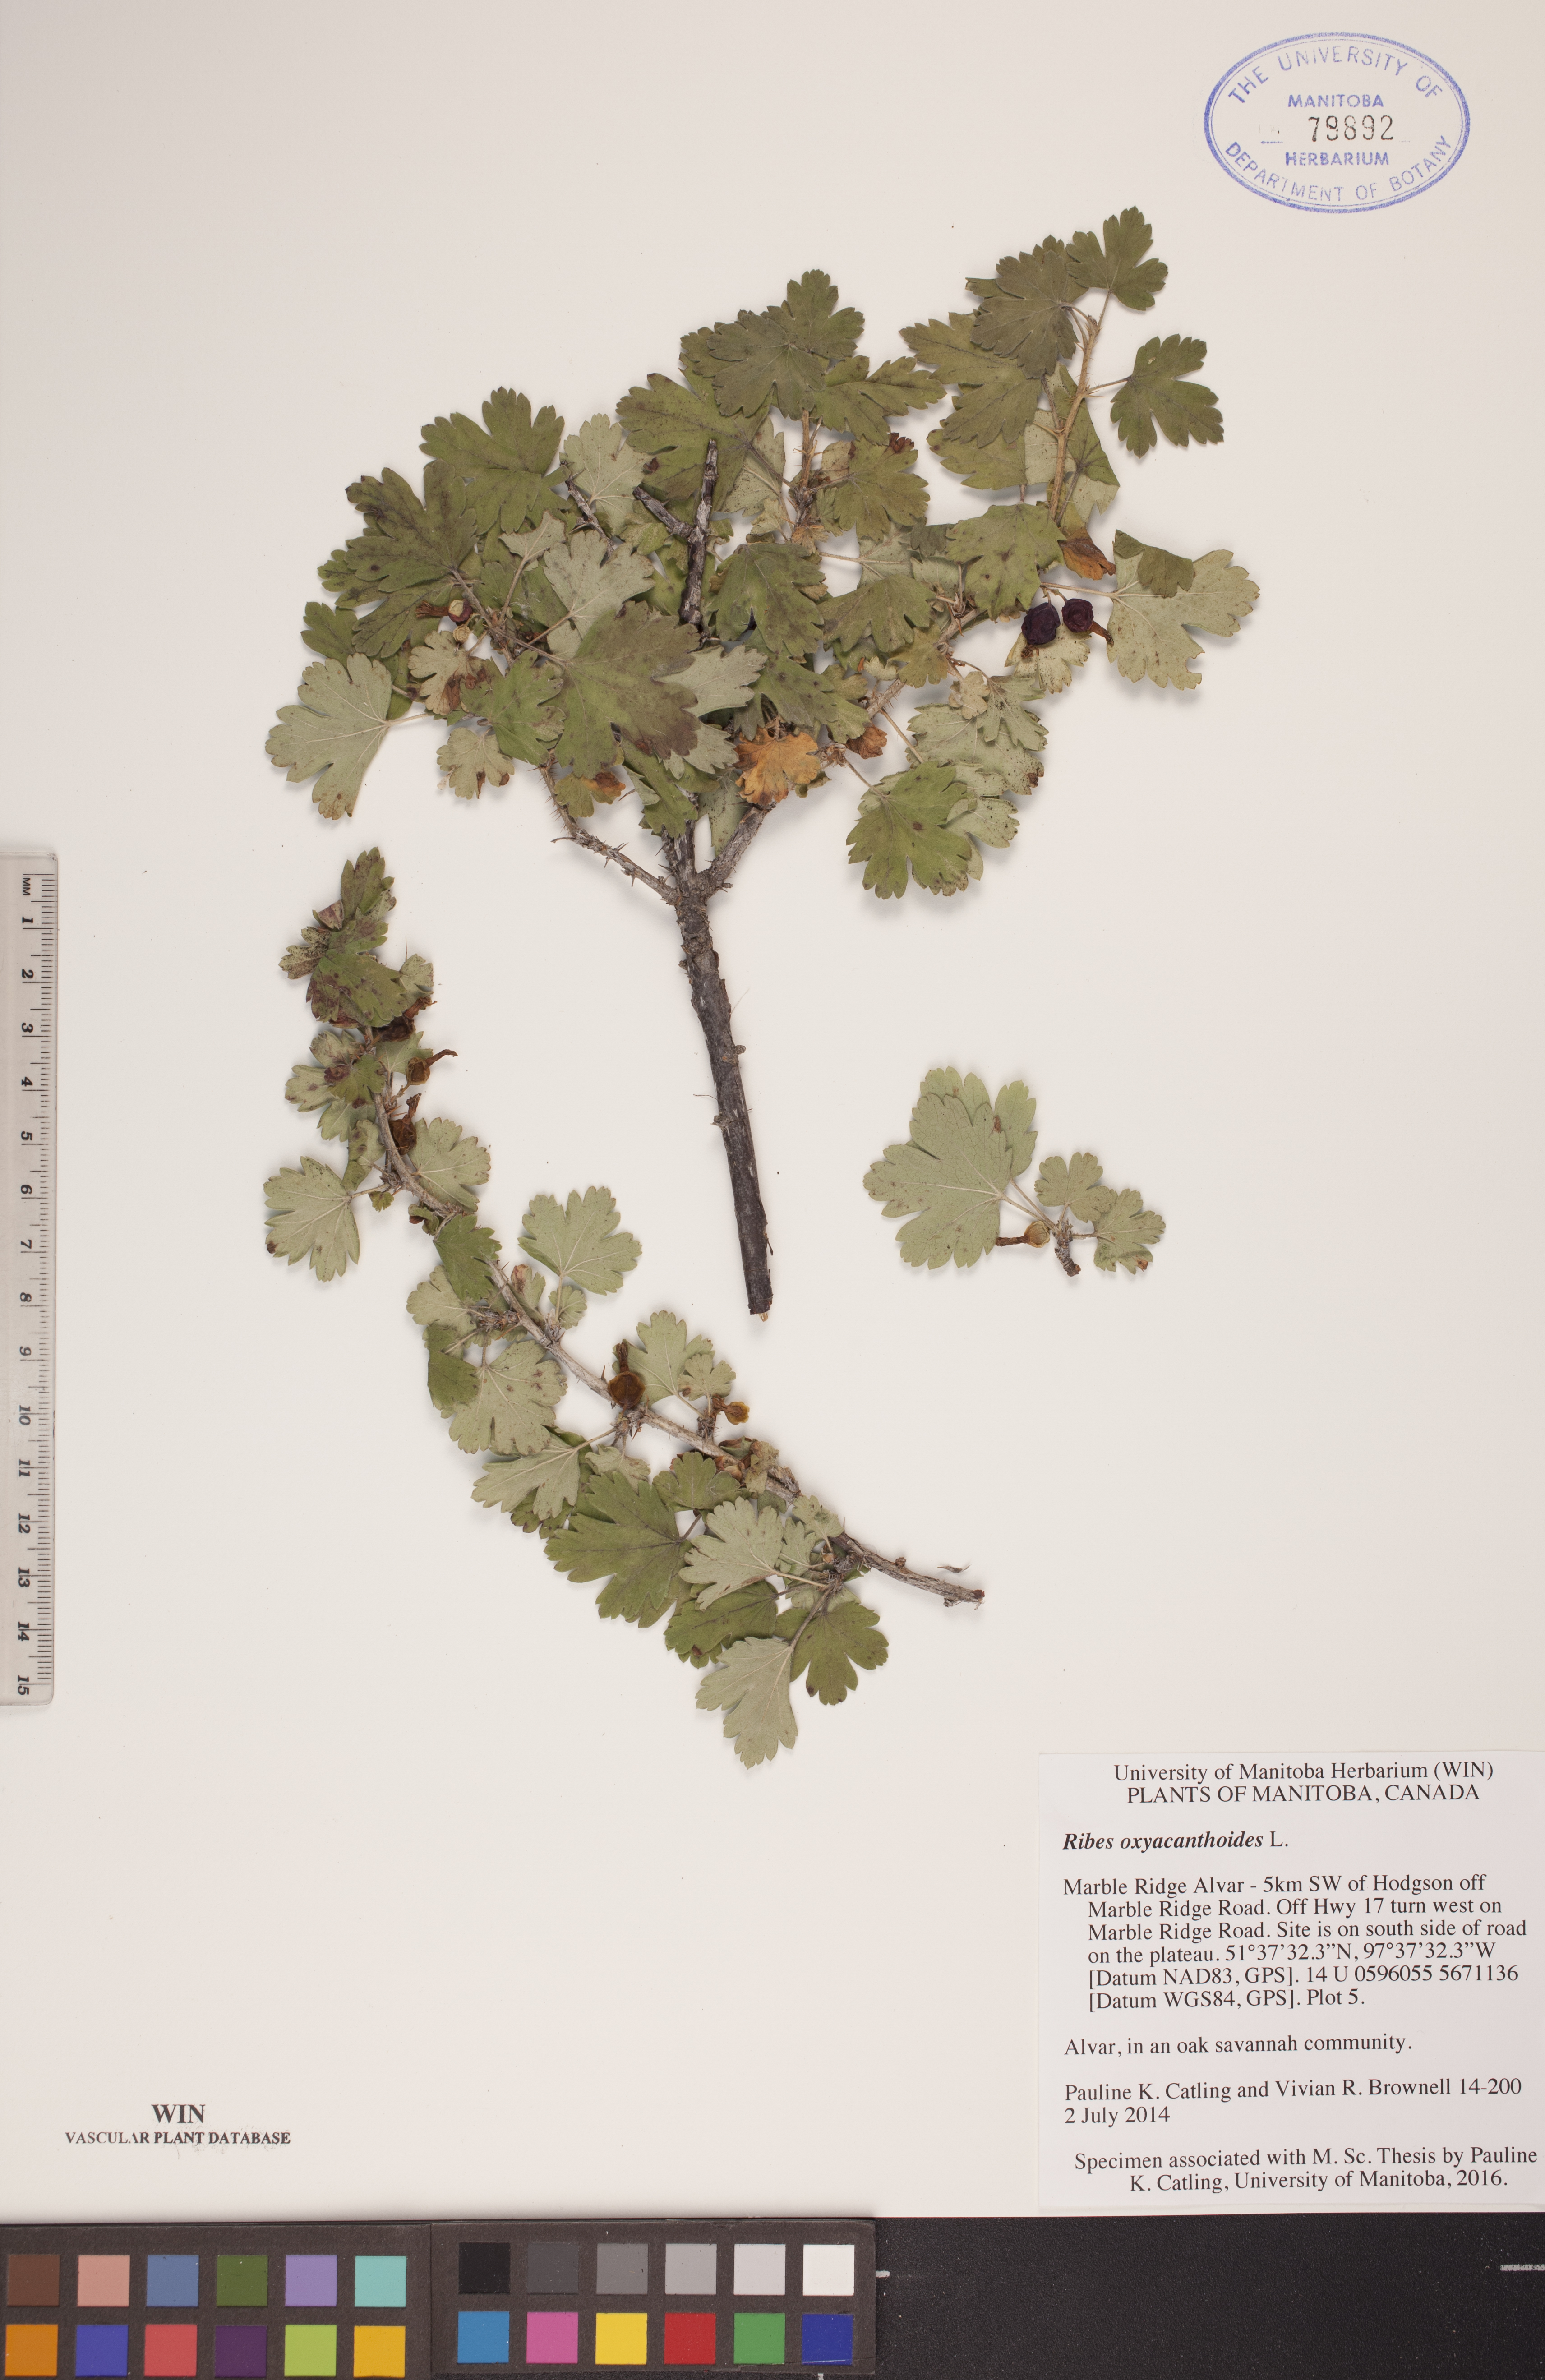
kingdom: Plantae
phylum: Tracheophyta
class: Magnoliopsida
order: Saxifragales
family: Grossulariaceae
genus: Ribes
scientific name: Ribes oxyacanthoides
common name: Northern gooseberry
